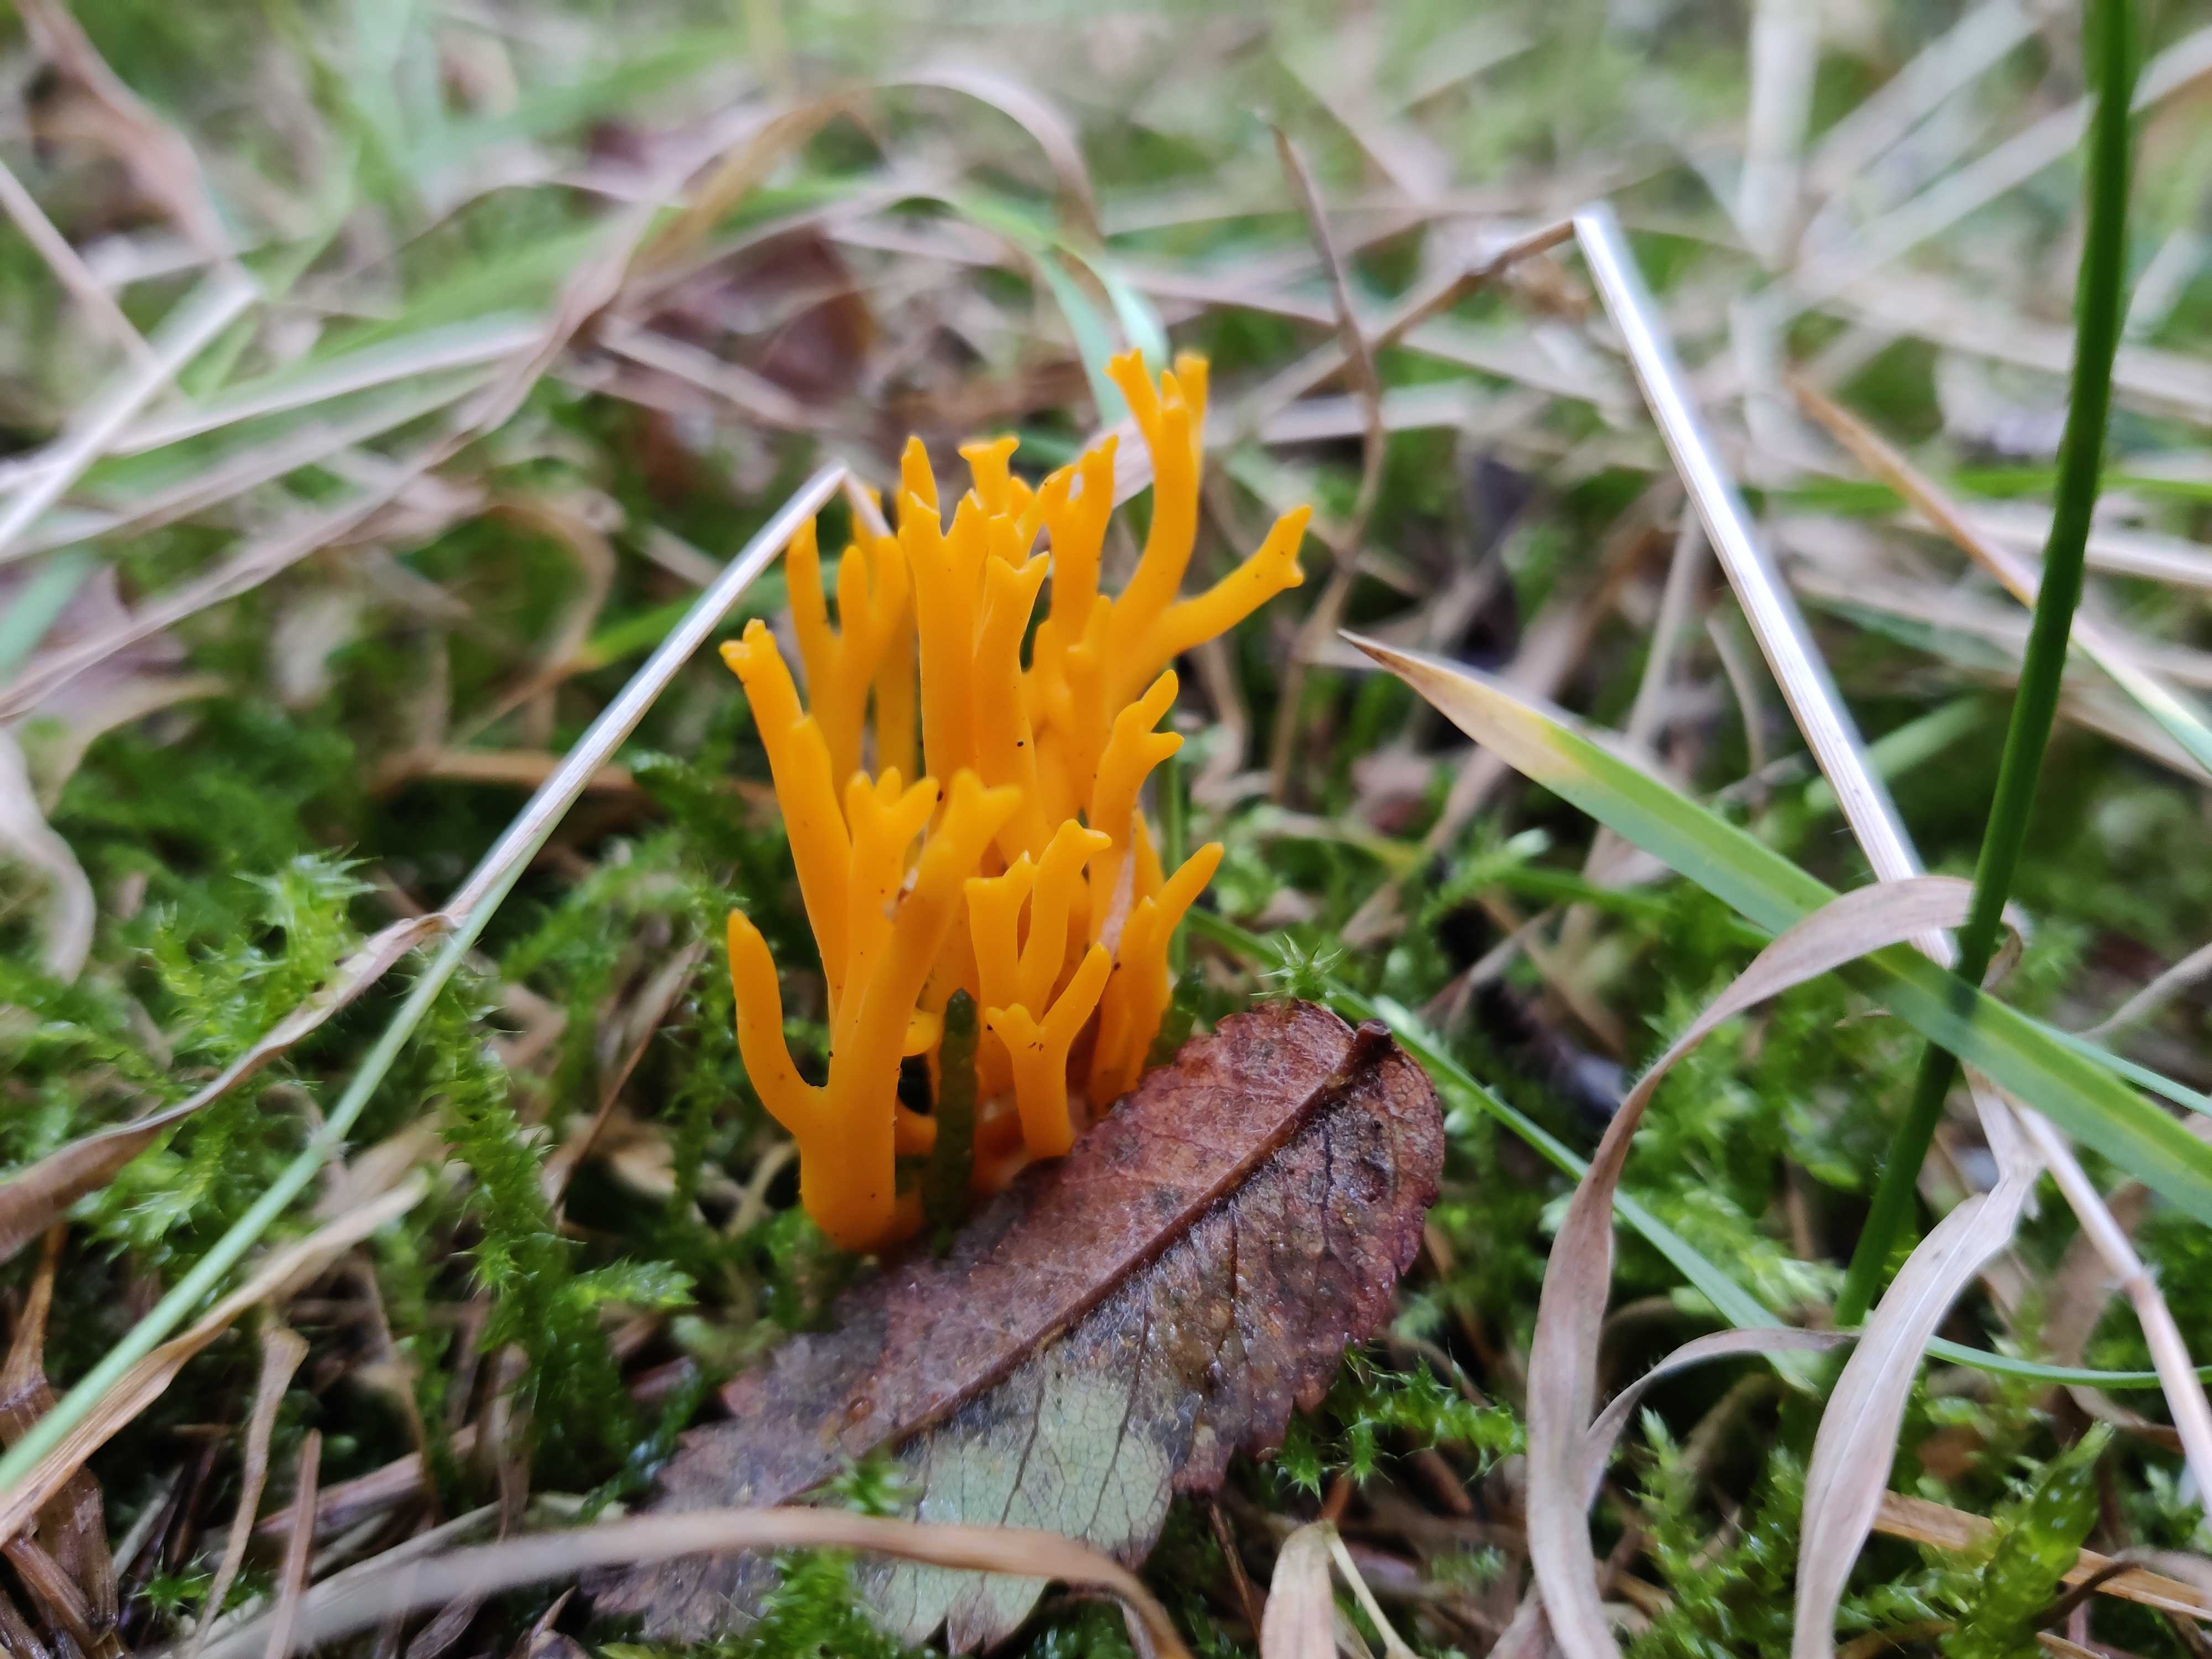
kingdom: Fungi
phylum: Basidiomycota
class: Dacrymycetes
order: Dacrymycetales
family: Dacrymycetaceae
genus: Calocera
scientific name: Calocera viscosa
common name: almindelig guldgaffel
